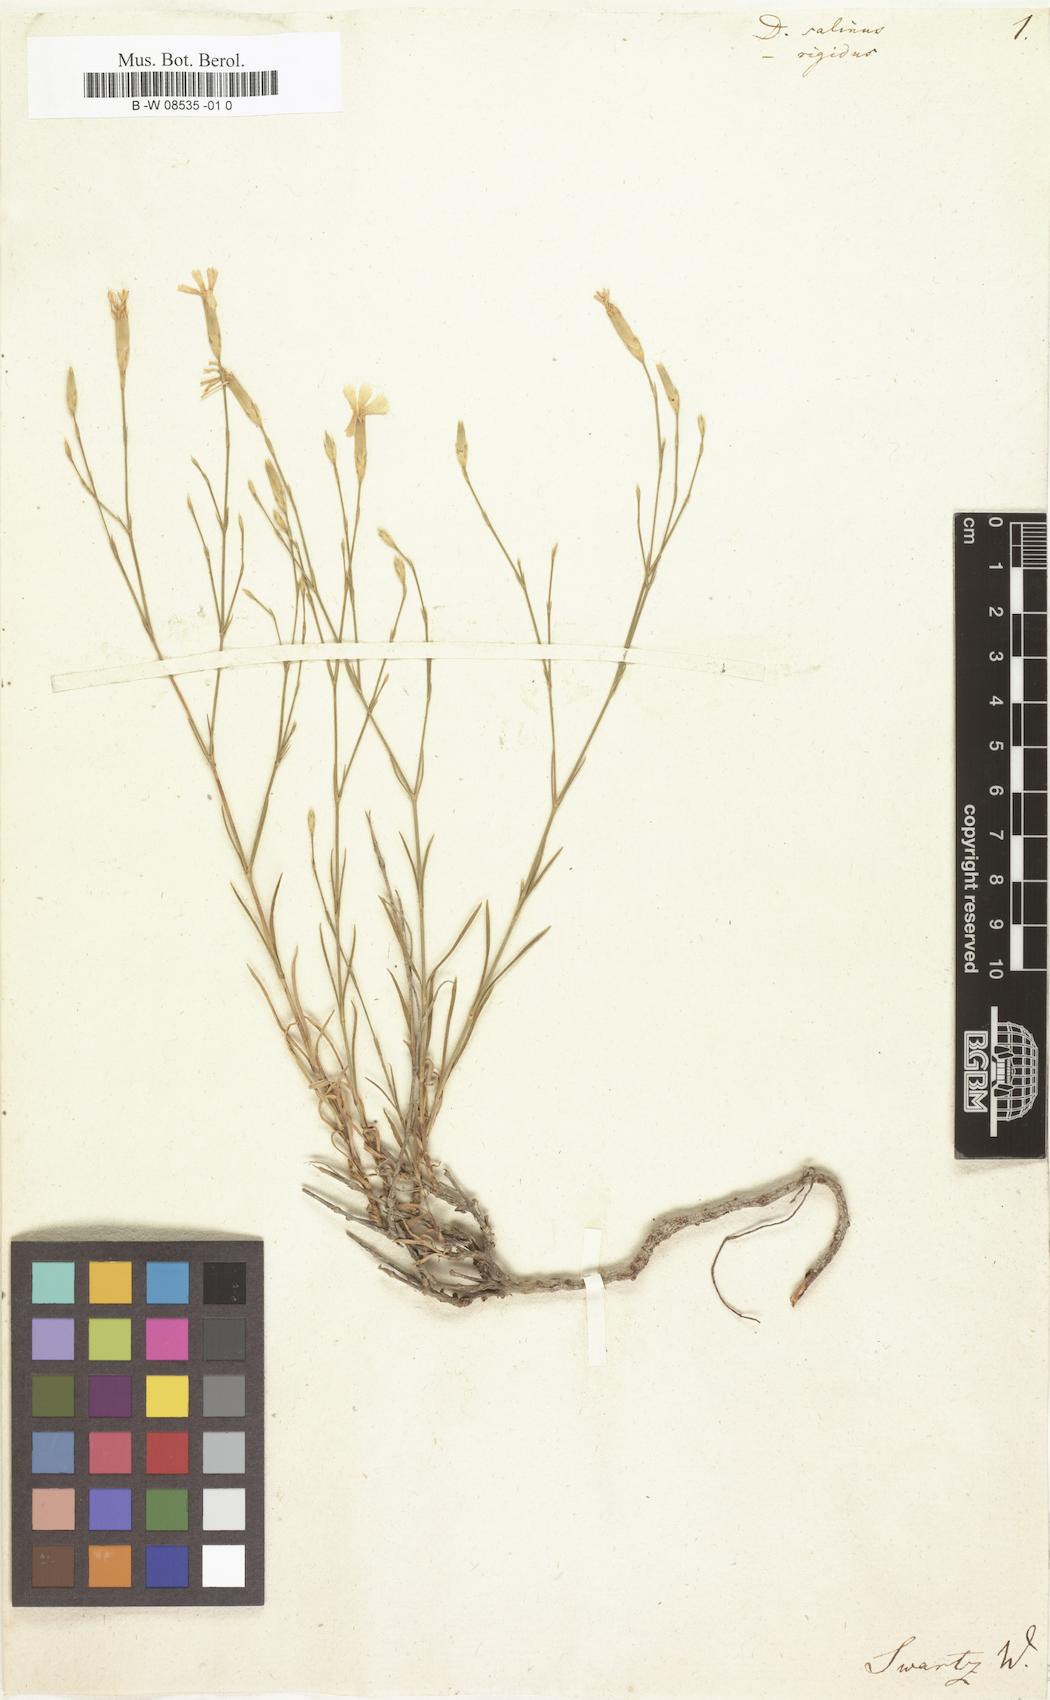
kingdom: Plantae
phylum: Tracheophyta
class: Magnoliopsida
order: Caryophyllales
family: Caryophyllaceae
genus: Dianthus
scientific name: Dianthus
